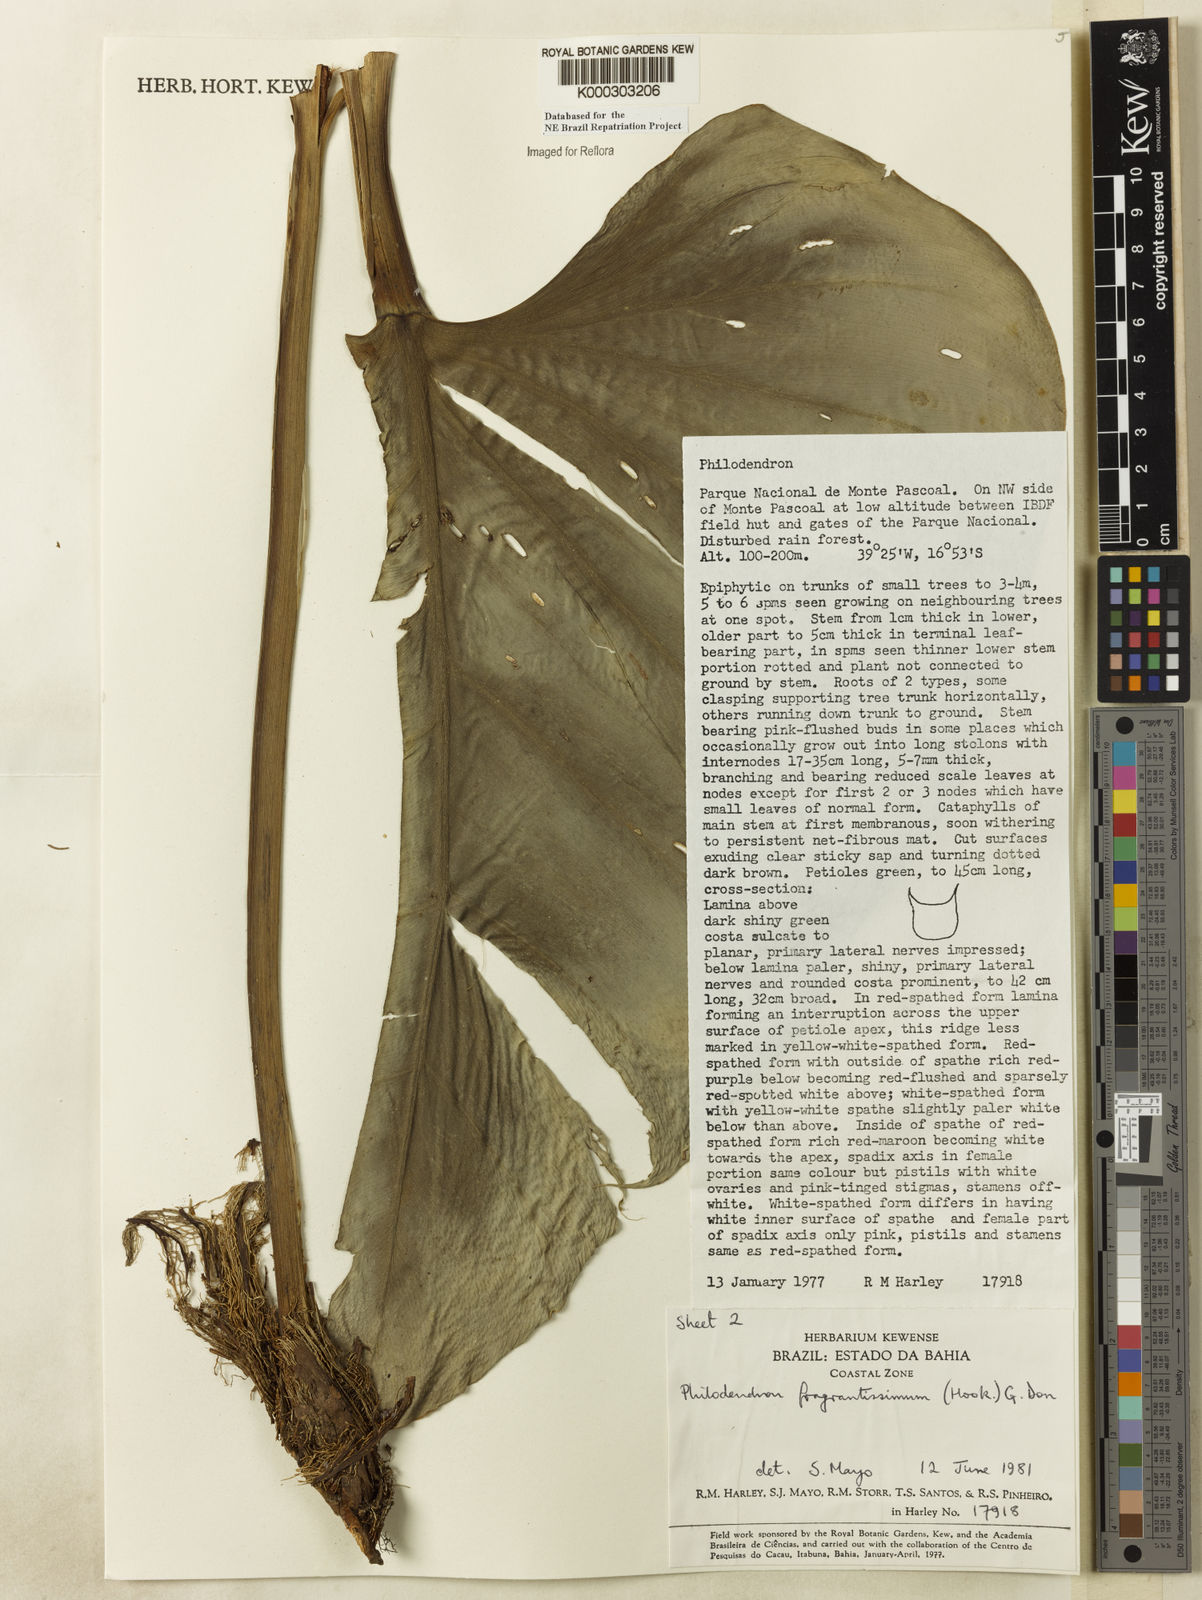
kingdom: Plantae
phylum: Tracheophyta
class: Liliopsida
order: Alismatales
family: Araceae
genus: Philodendron
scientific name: Philodendron fragrantissimum
